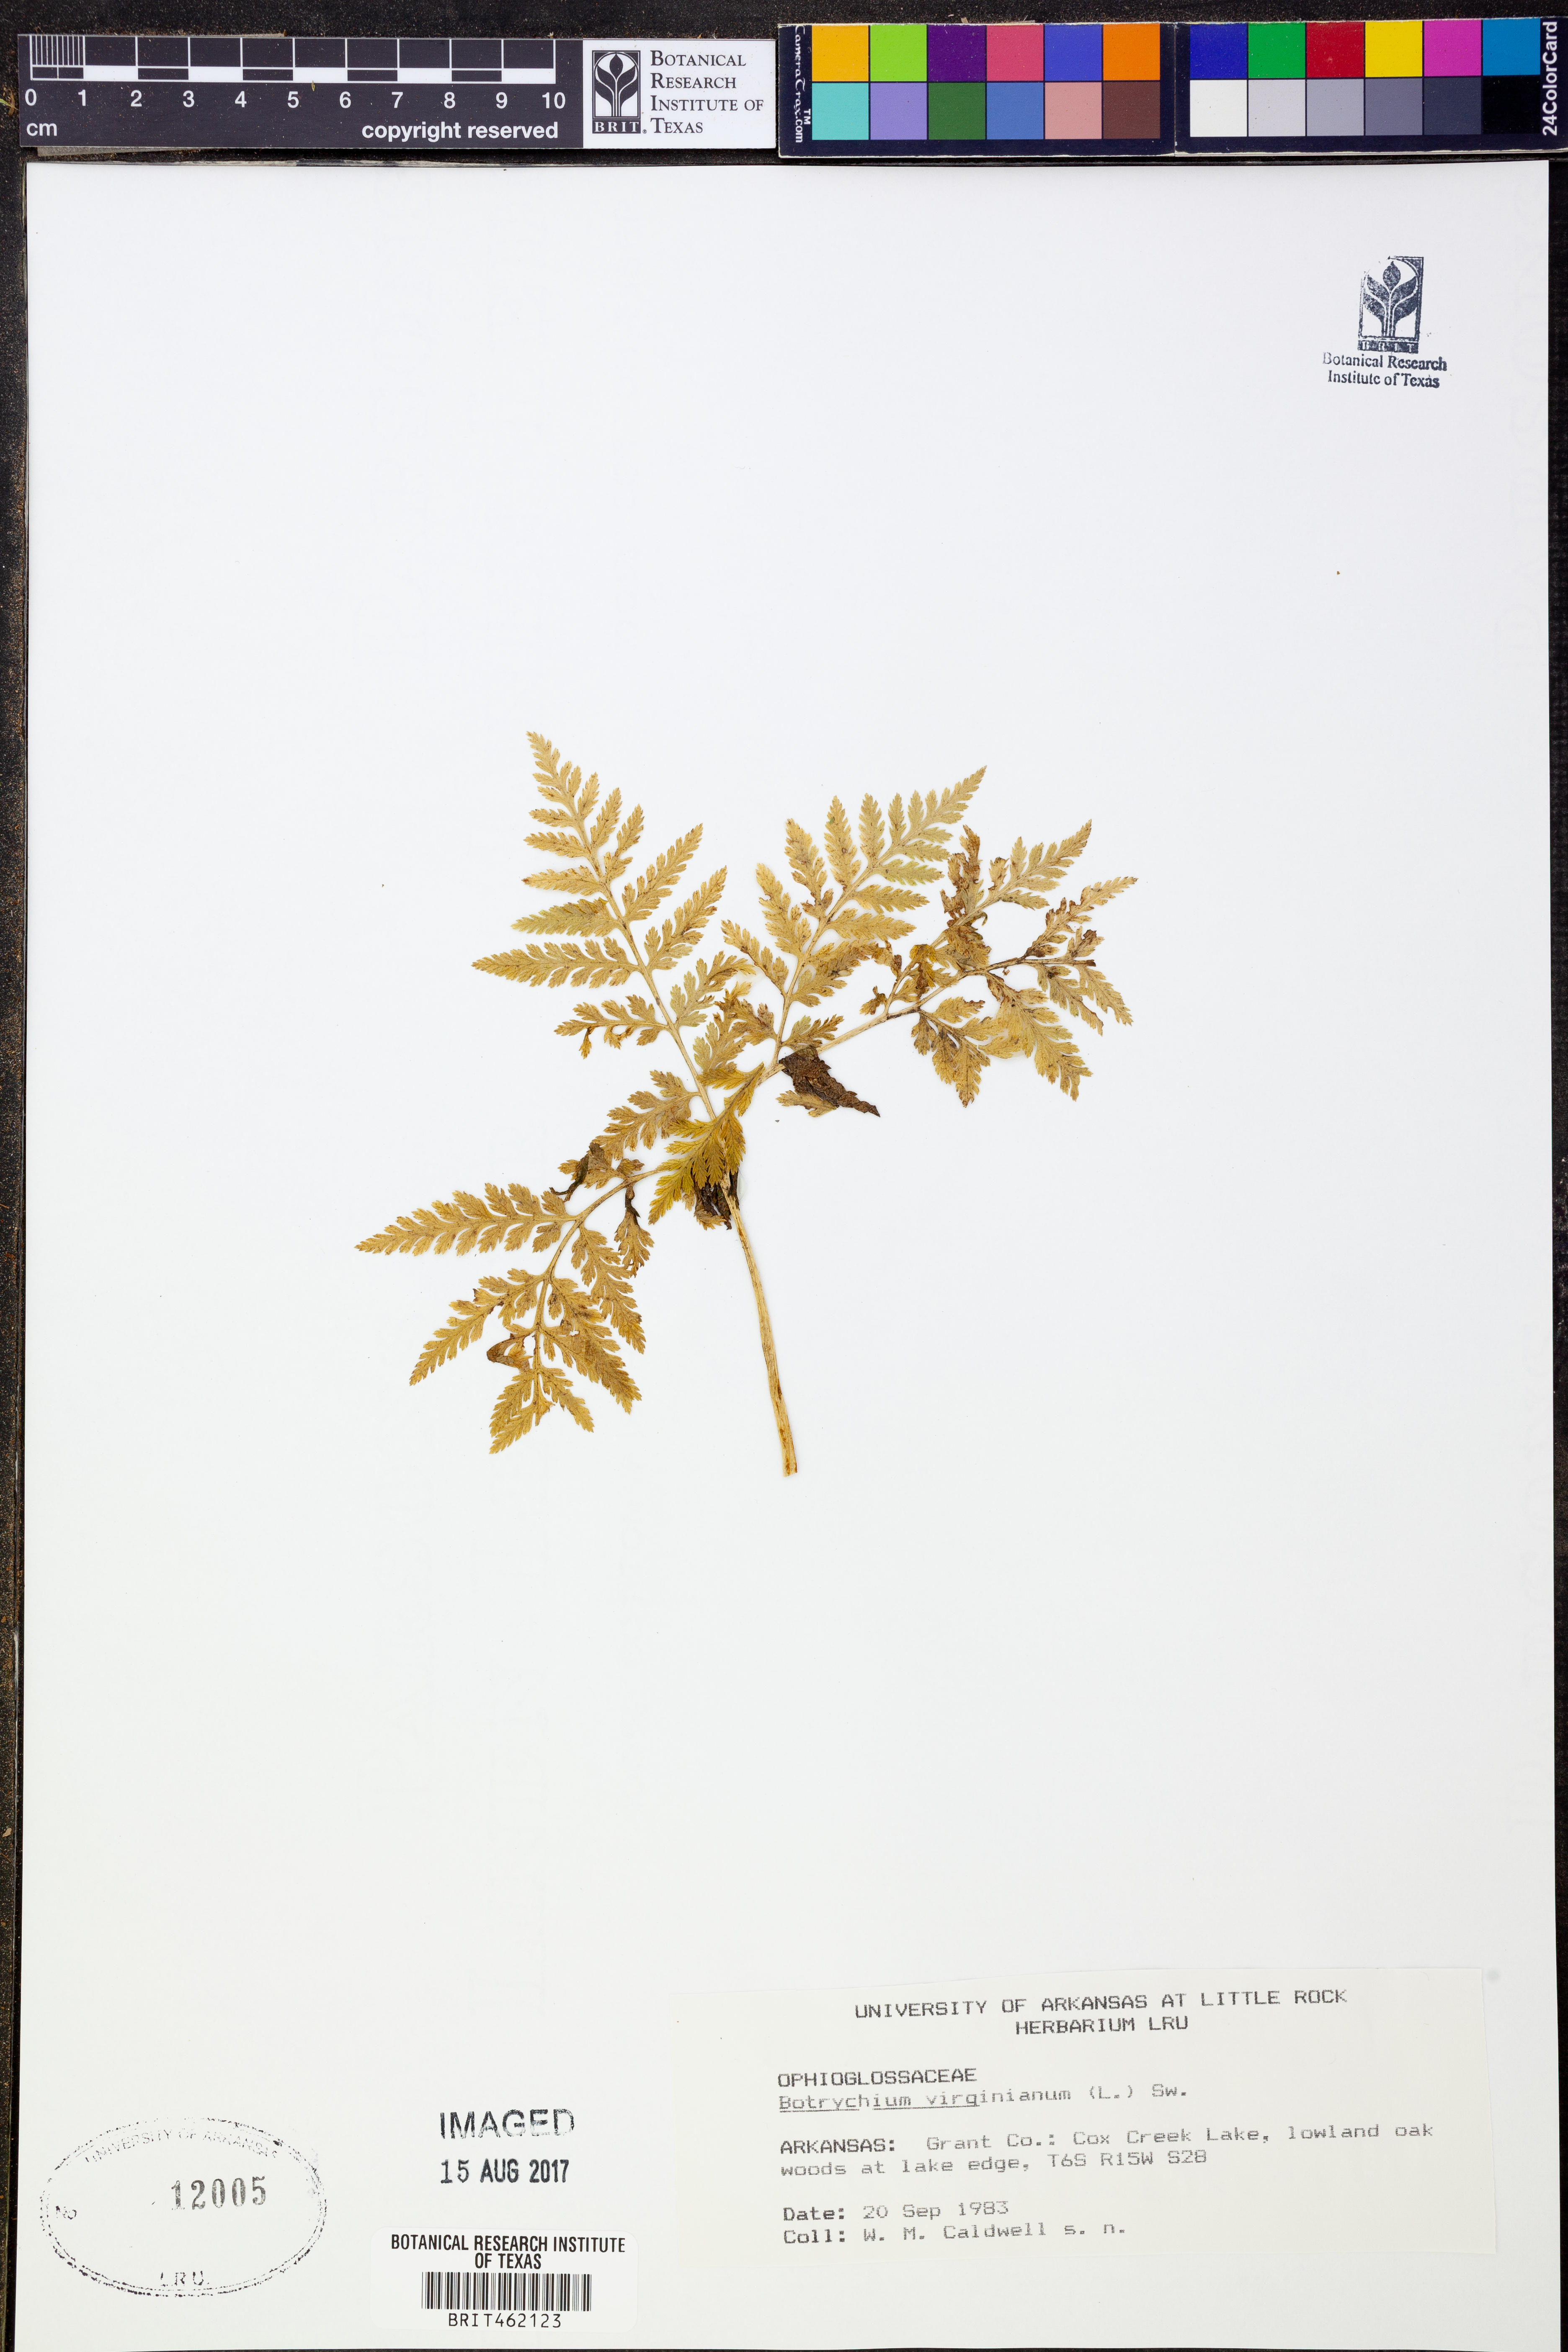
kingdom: Plantae
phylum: Tracheophyta
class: Polypodiopsida
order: Ophioglossales
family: Ophioglossaceae
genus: Botrypus
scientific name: Botrypus virginianus
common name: Common grapefern
